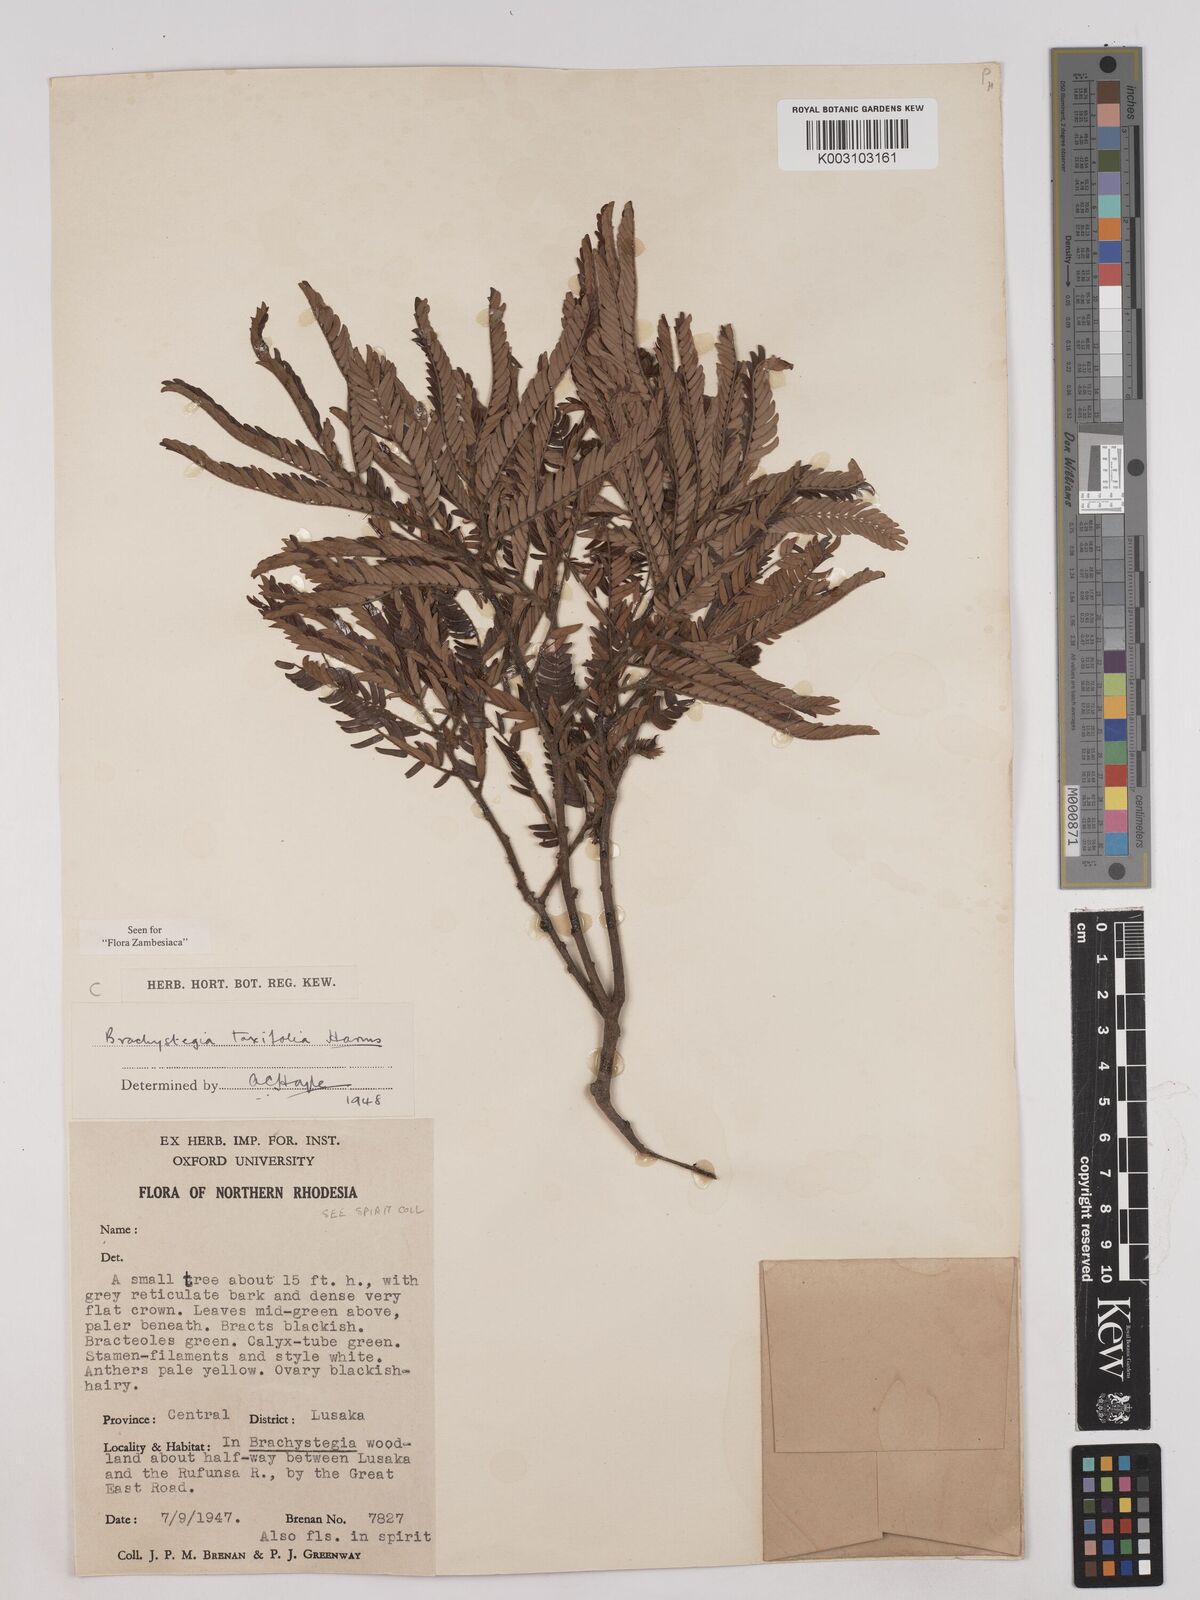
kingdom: Plantae
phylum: Tracheophyta
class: Magnoliopsida
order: Fabales
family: Fabaceae
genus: Brachystegia
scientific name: Brachystegia taxifolia
